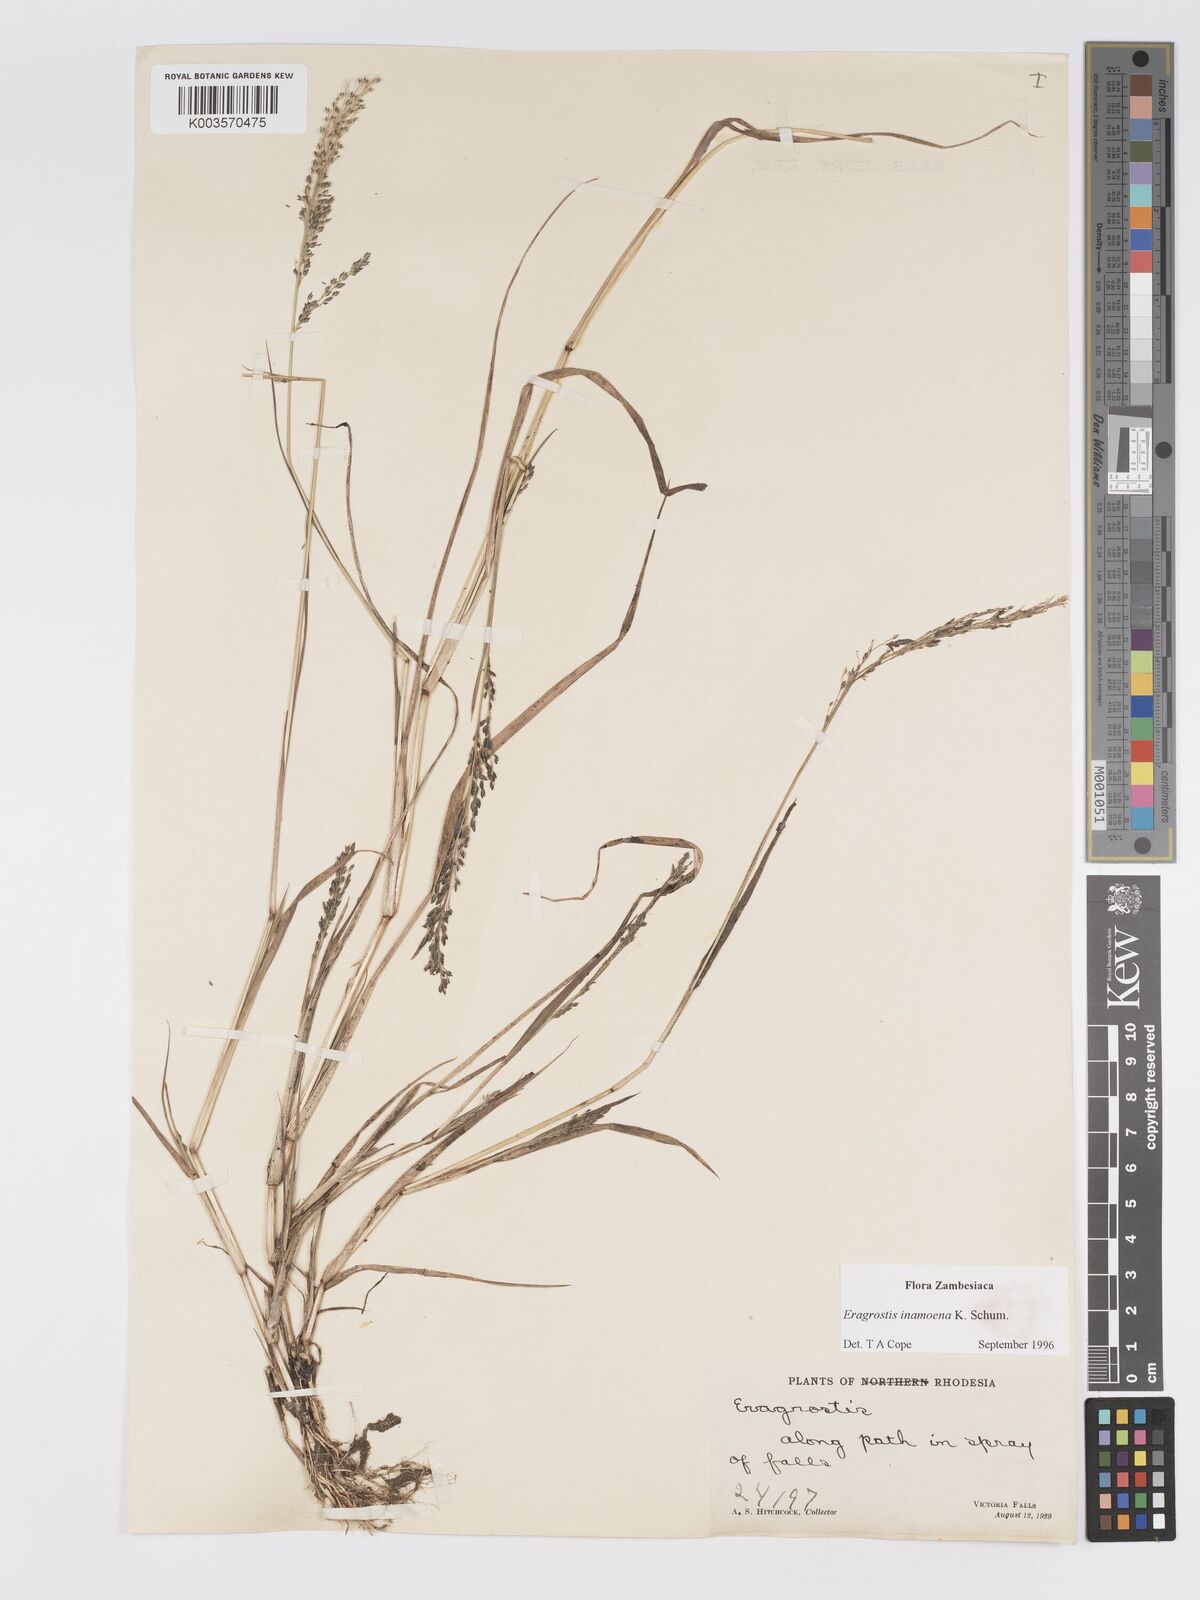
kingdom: Plantae
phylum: Tracheophyta
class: Liliopsida
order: Poales
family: Poaceae
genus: Eragrostis
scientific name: Eragrostis inamoena
